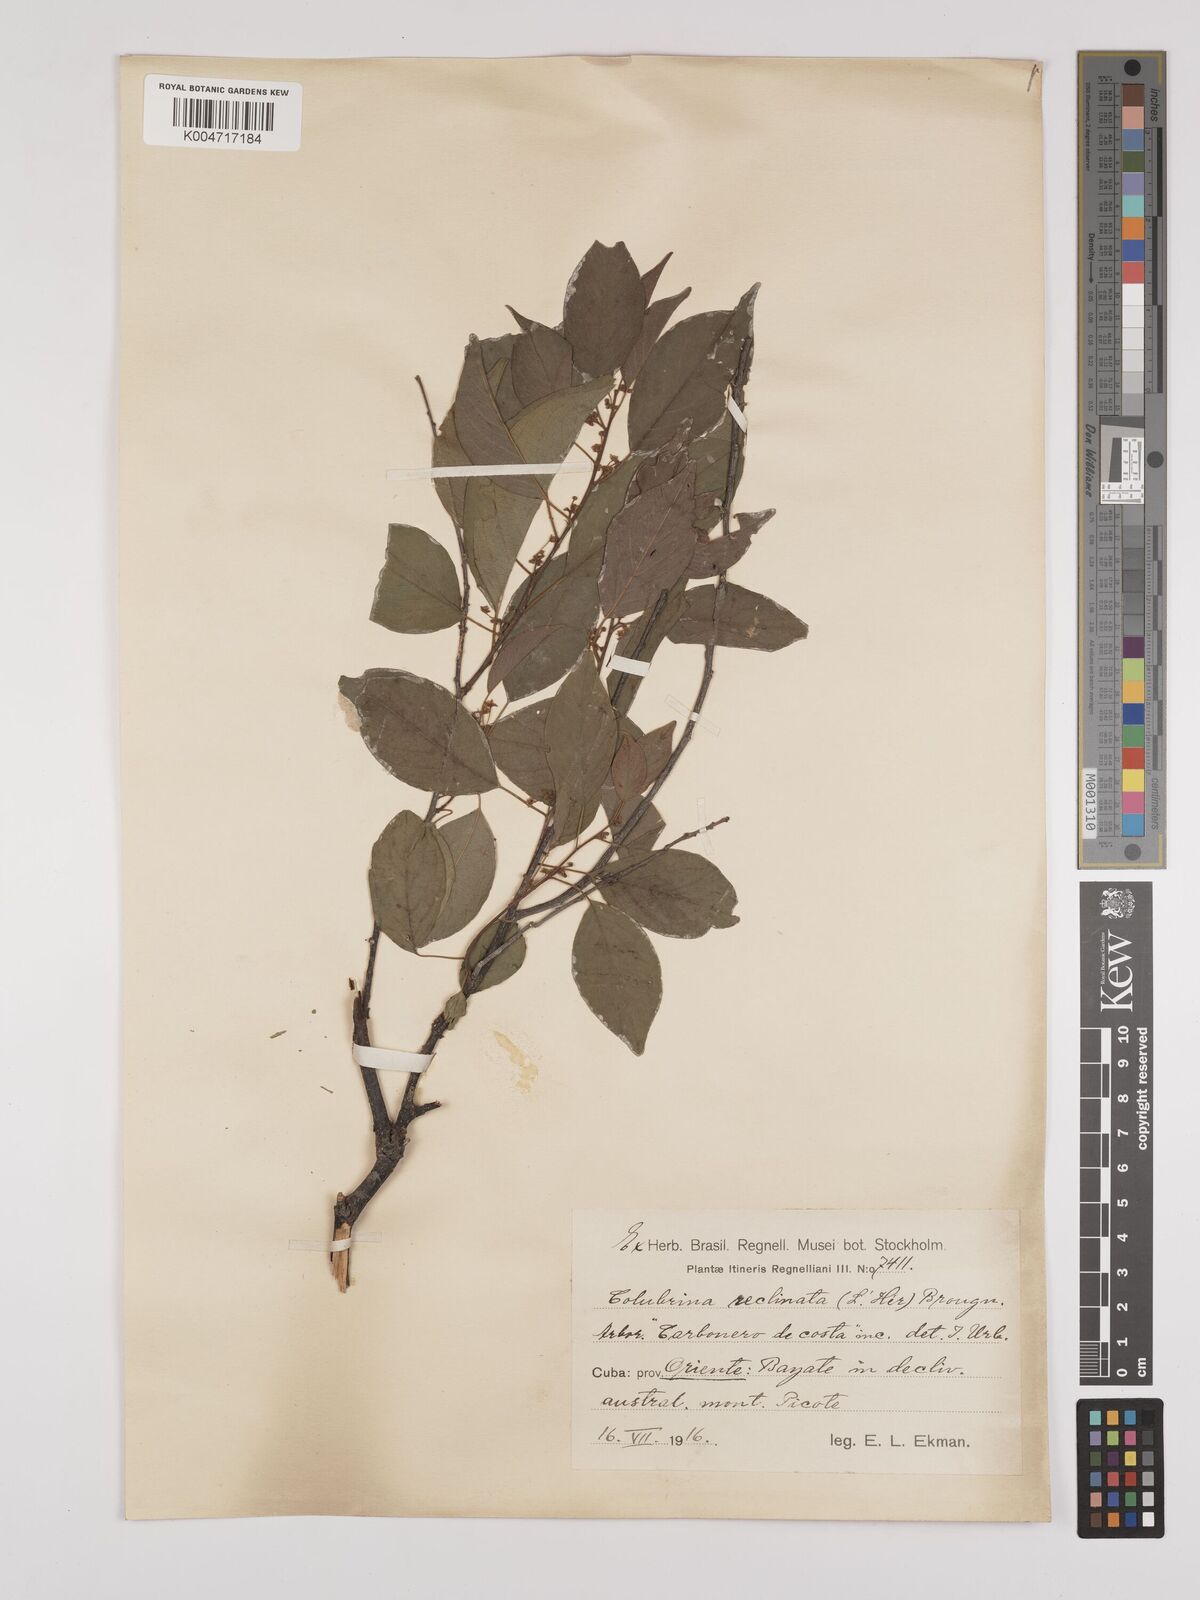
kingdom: Plantae
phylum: Tracheophyta
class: Magnoliopsida
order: Rosales
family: Rhamnaceae
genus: Colubrina
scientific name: Colubrina elliptica
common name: Soldierwood
